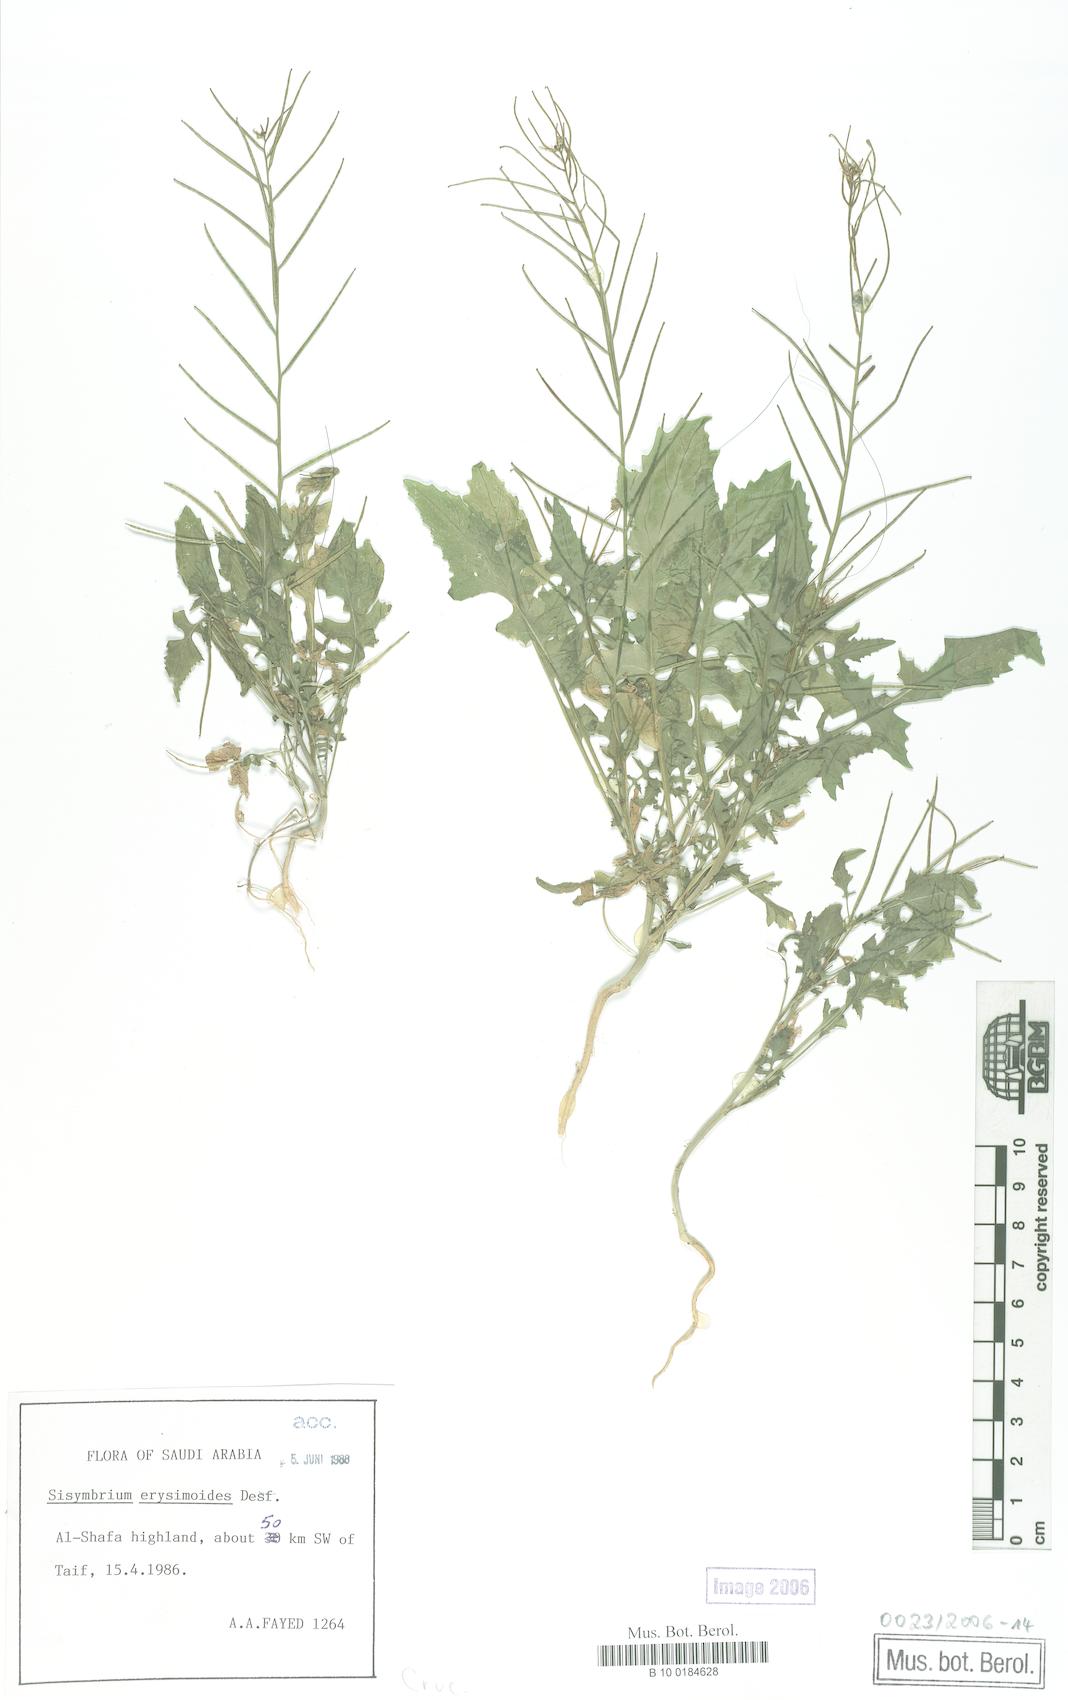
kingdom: Plantae
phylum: Tracheophyta
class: Magnoliopsida
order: Brassicales
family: Brassicaceae
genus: Sisymbrium
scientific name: Sisymbrium erysimoides
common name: French rocket
